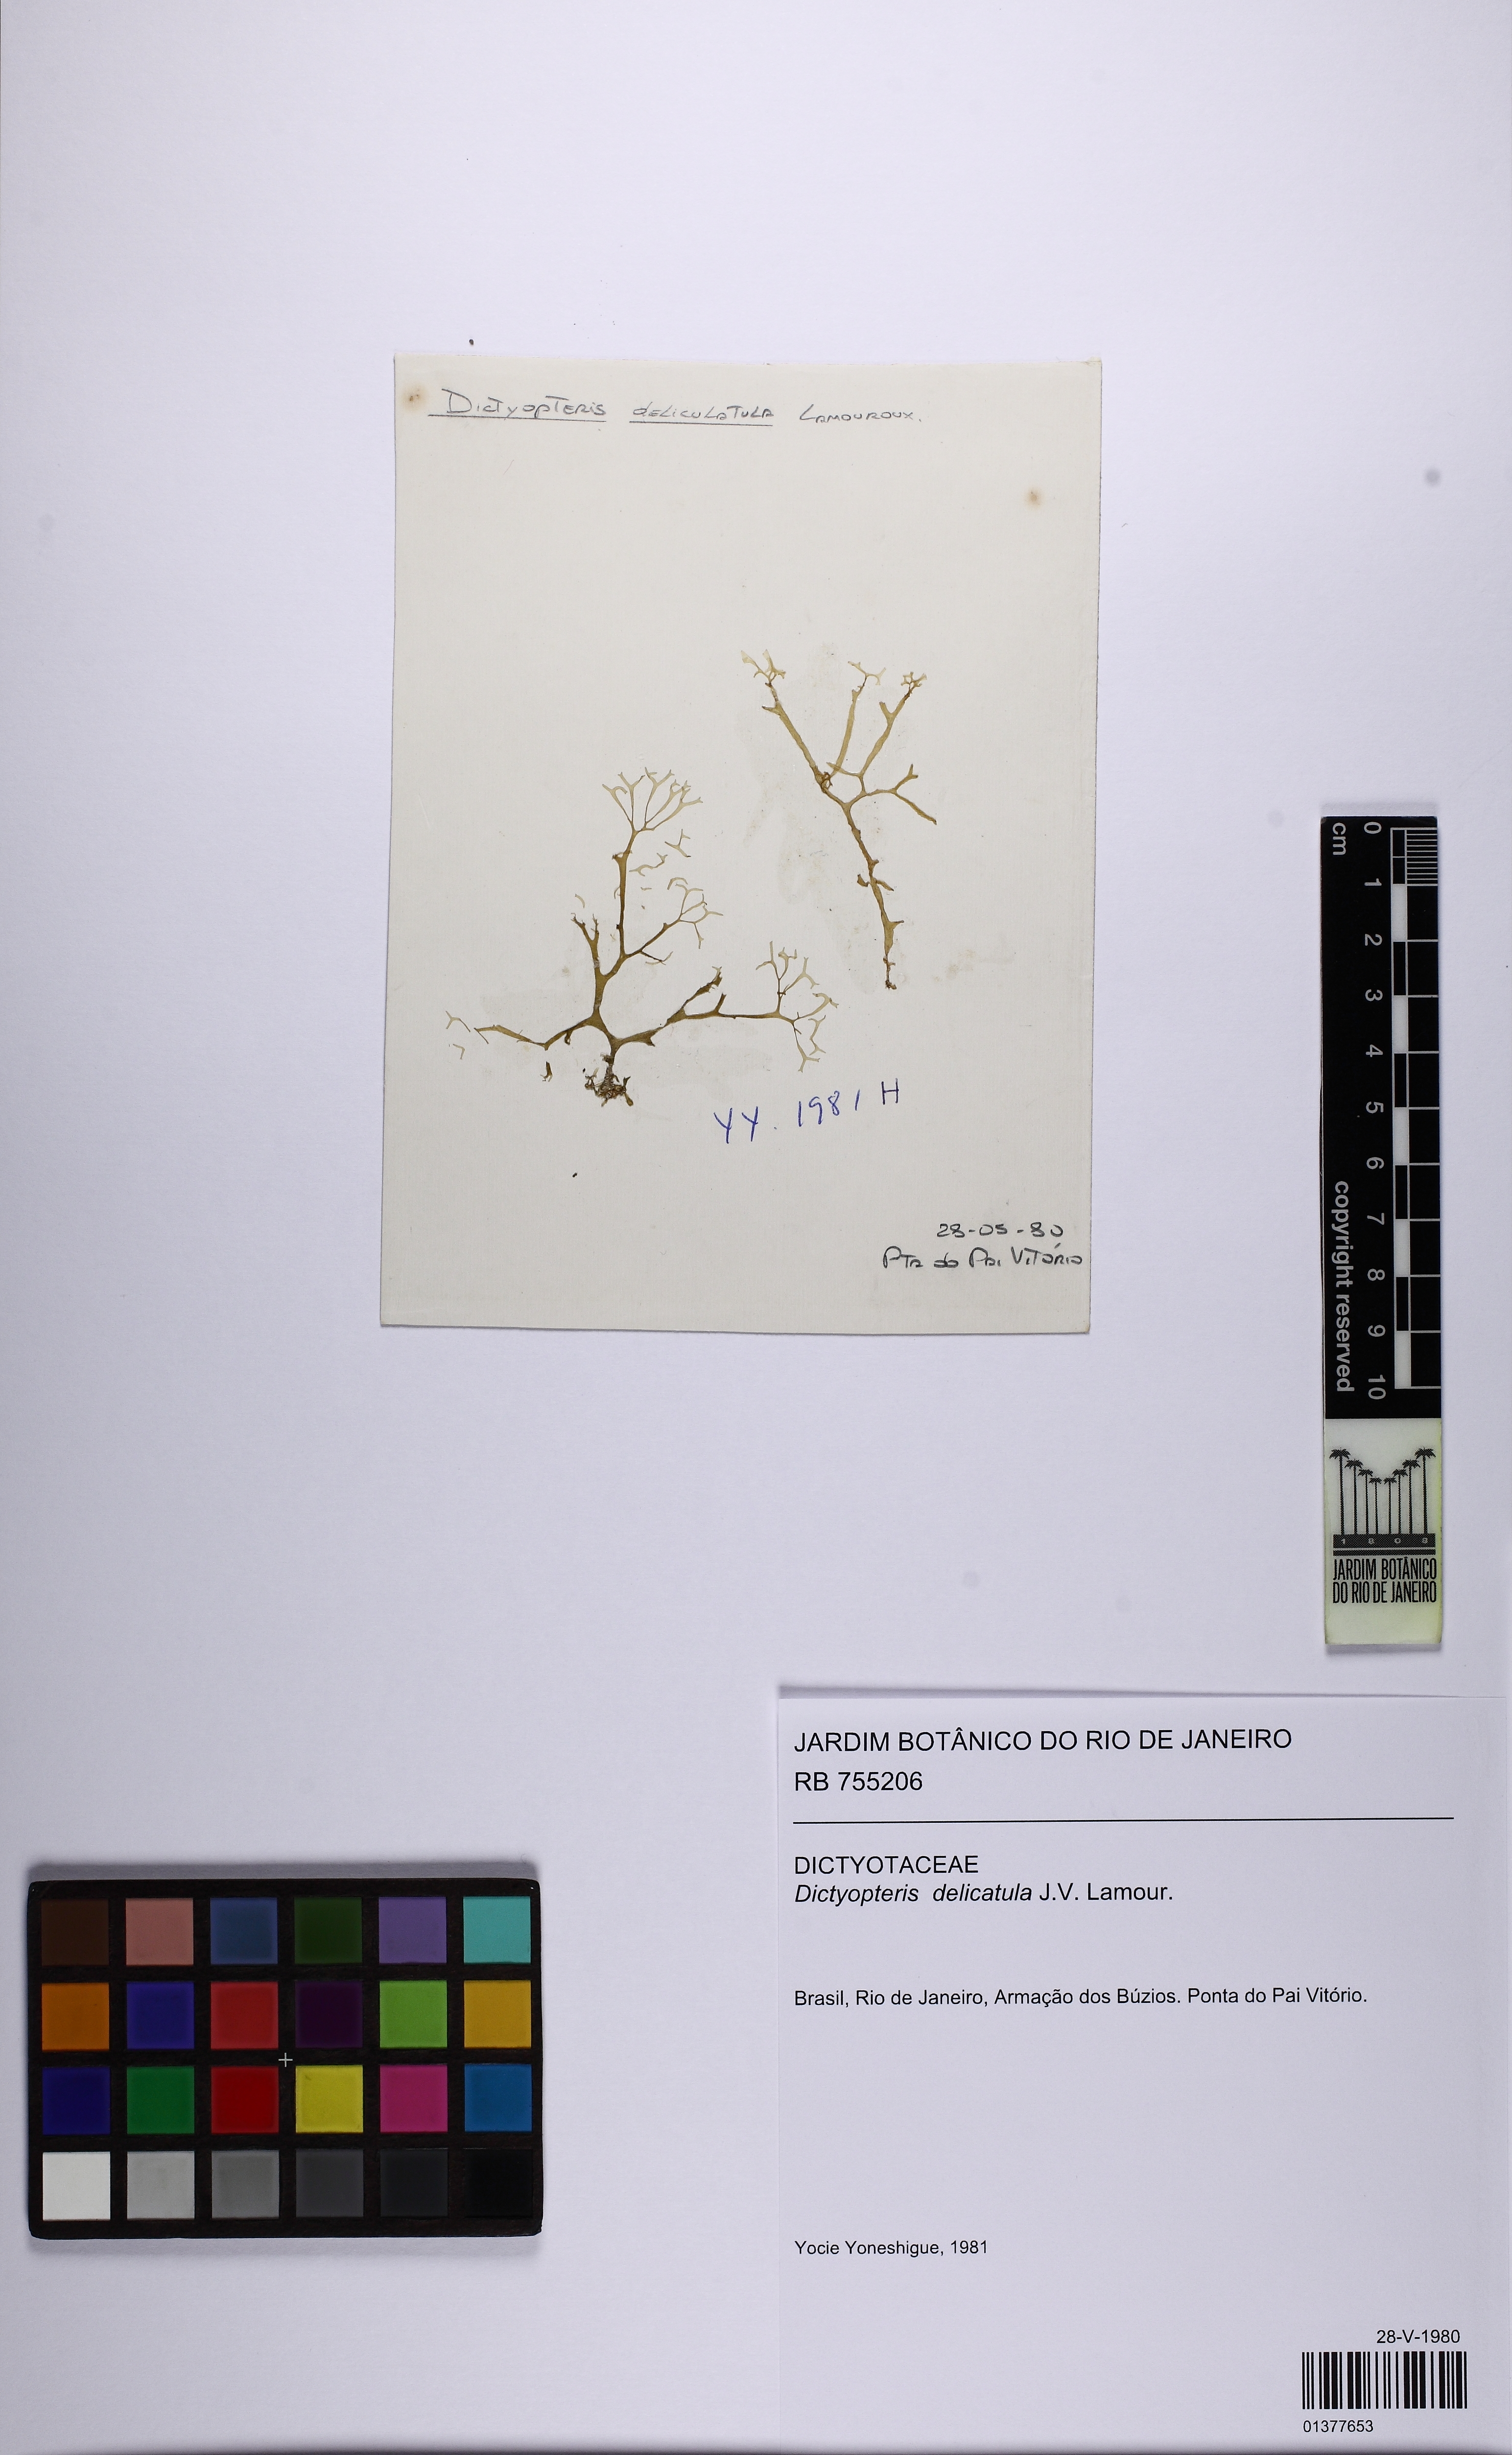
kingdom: Chromista
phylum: Ochrophyta
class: Phaeophyceae
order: Dictyotales
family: Dictyotaceae
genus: Dictyopteris
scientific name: Dictyopteris delicatula
